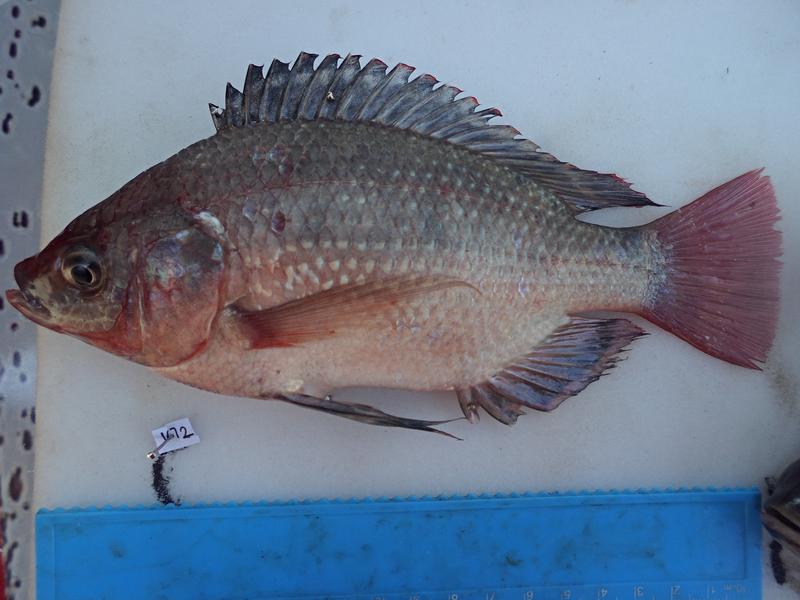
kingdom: Animalia
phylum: Chordata
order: Perciformes
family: Cichlidae
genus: Oreochromis
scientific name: Oreochromis esculentus
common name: Carp
